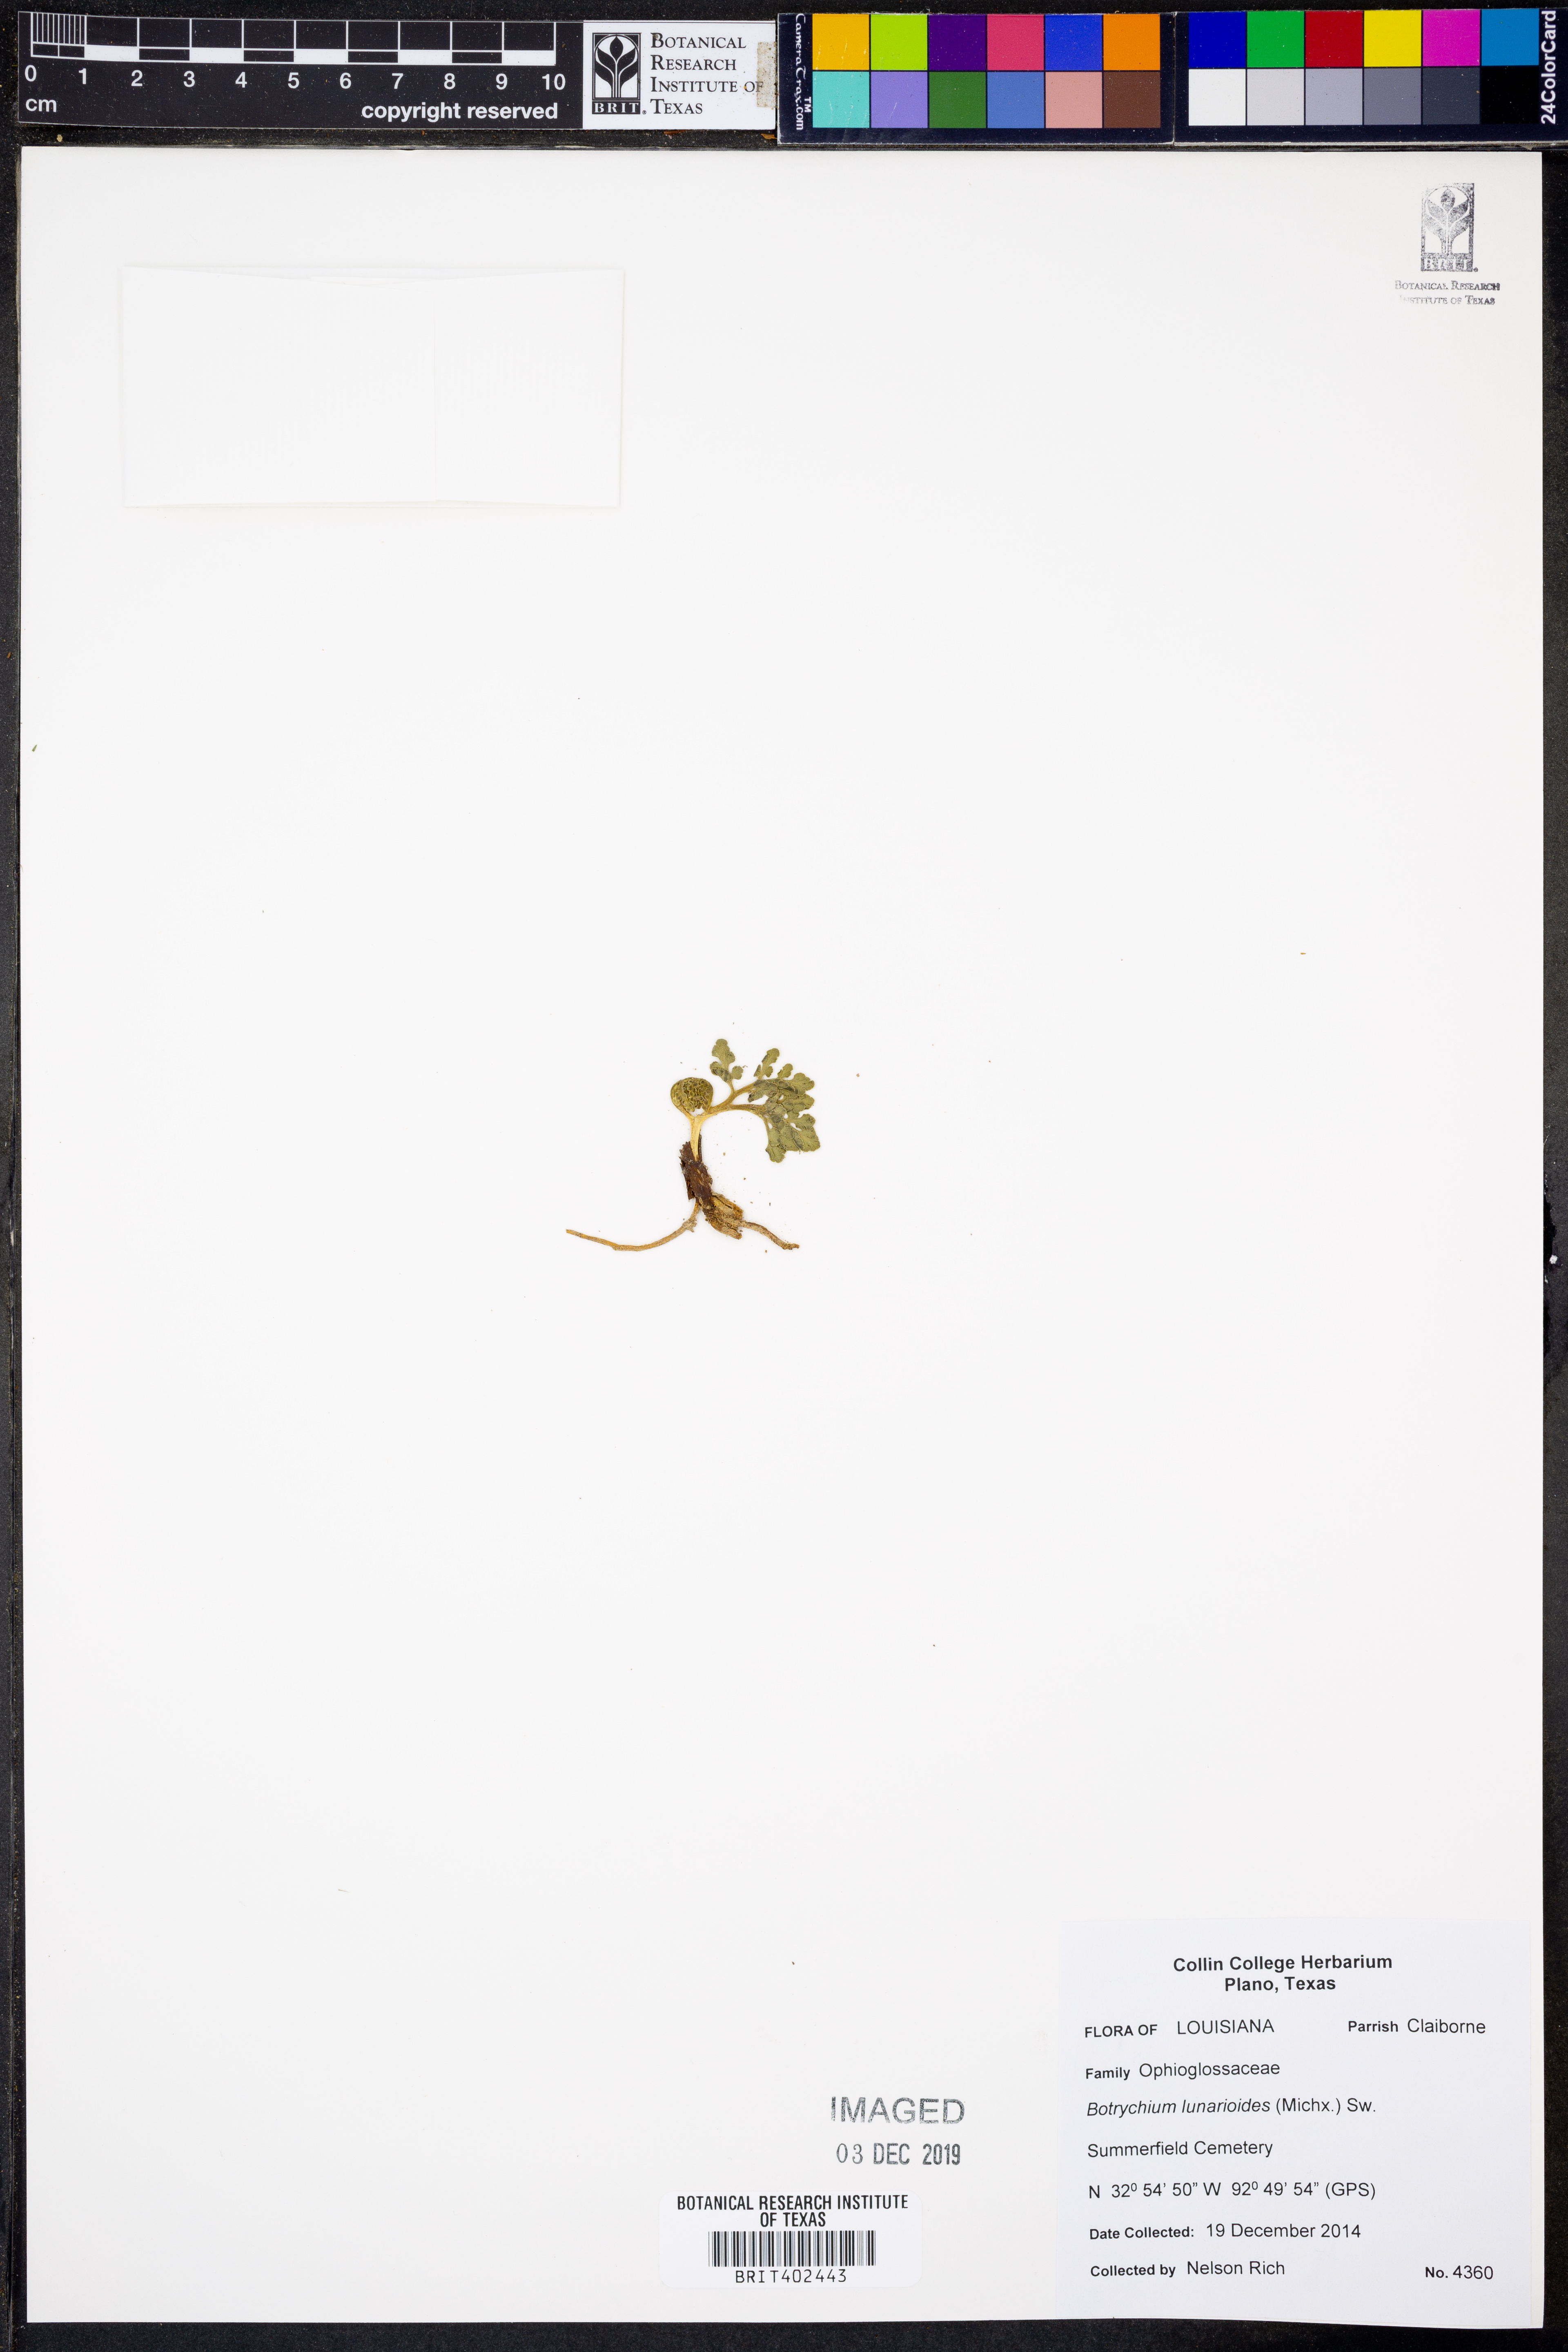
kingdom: Plantae
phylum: Tracheophyta
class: Polypodiopsida
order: Ophioglossales
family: Ophioglossaceae
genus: Sceptridium
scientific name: Sceptridium lunarioides
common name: Prostrate grapefern
